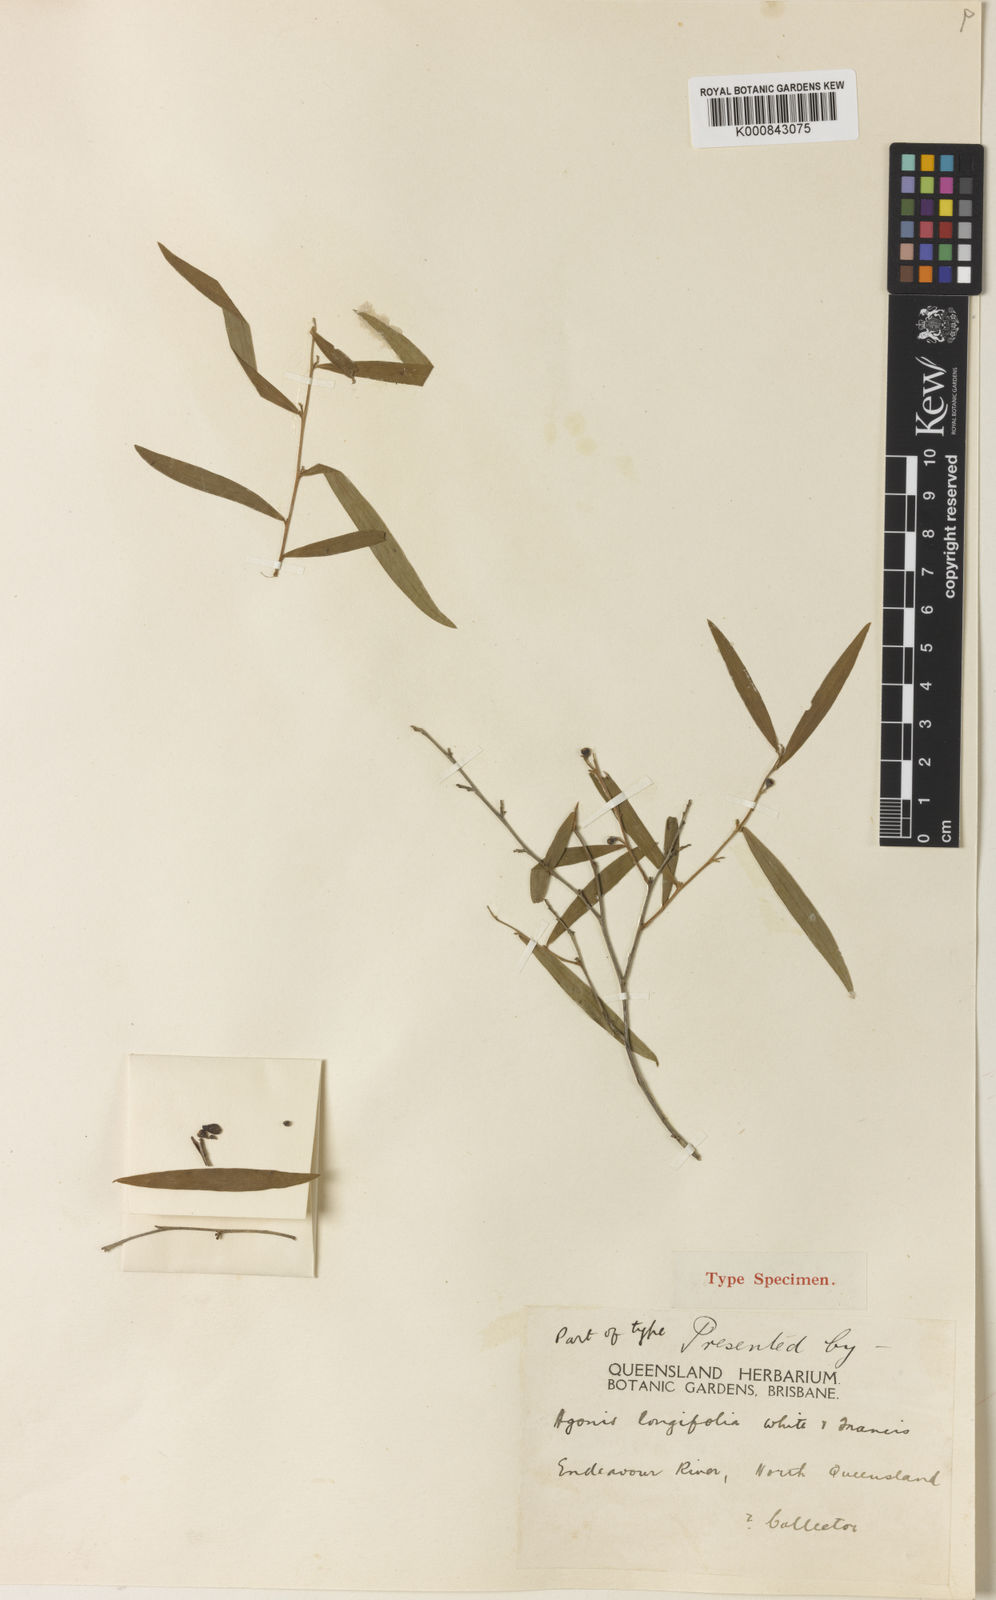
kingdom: Plantae
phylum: Tracheophyta
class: Magnoliopsida
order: Myrtales
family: Myrtaceae
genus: Leptospermum
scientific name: Leptospermum parviflorum
